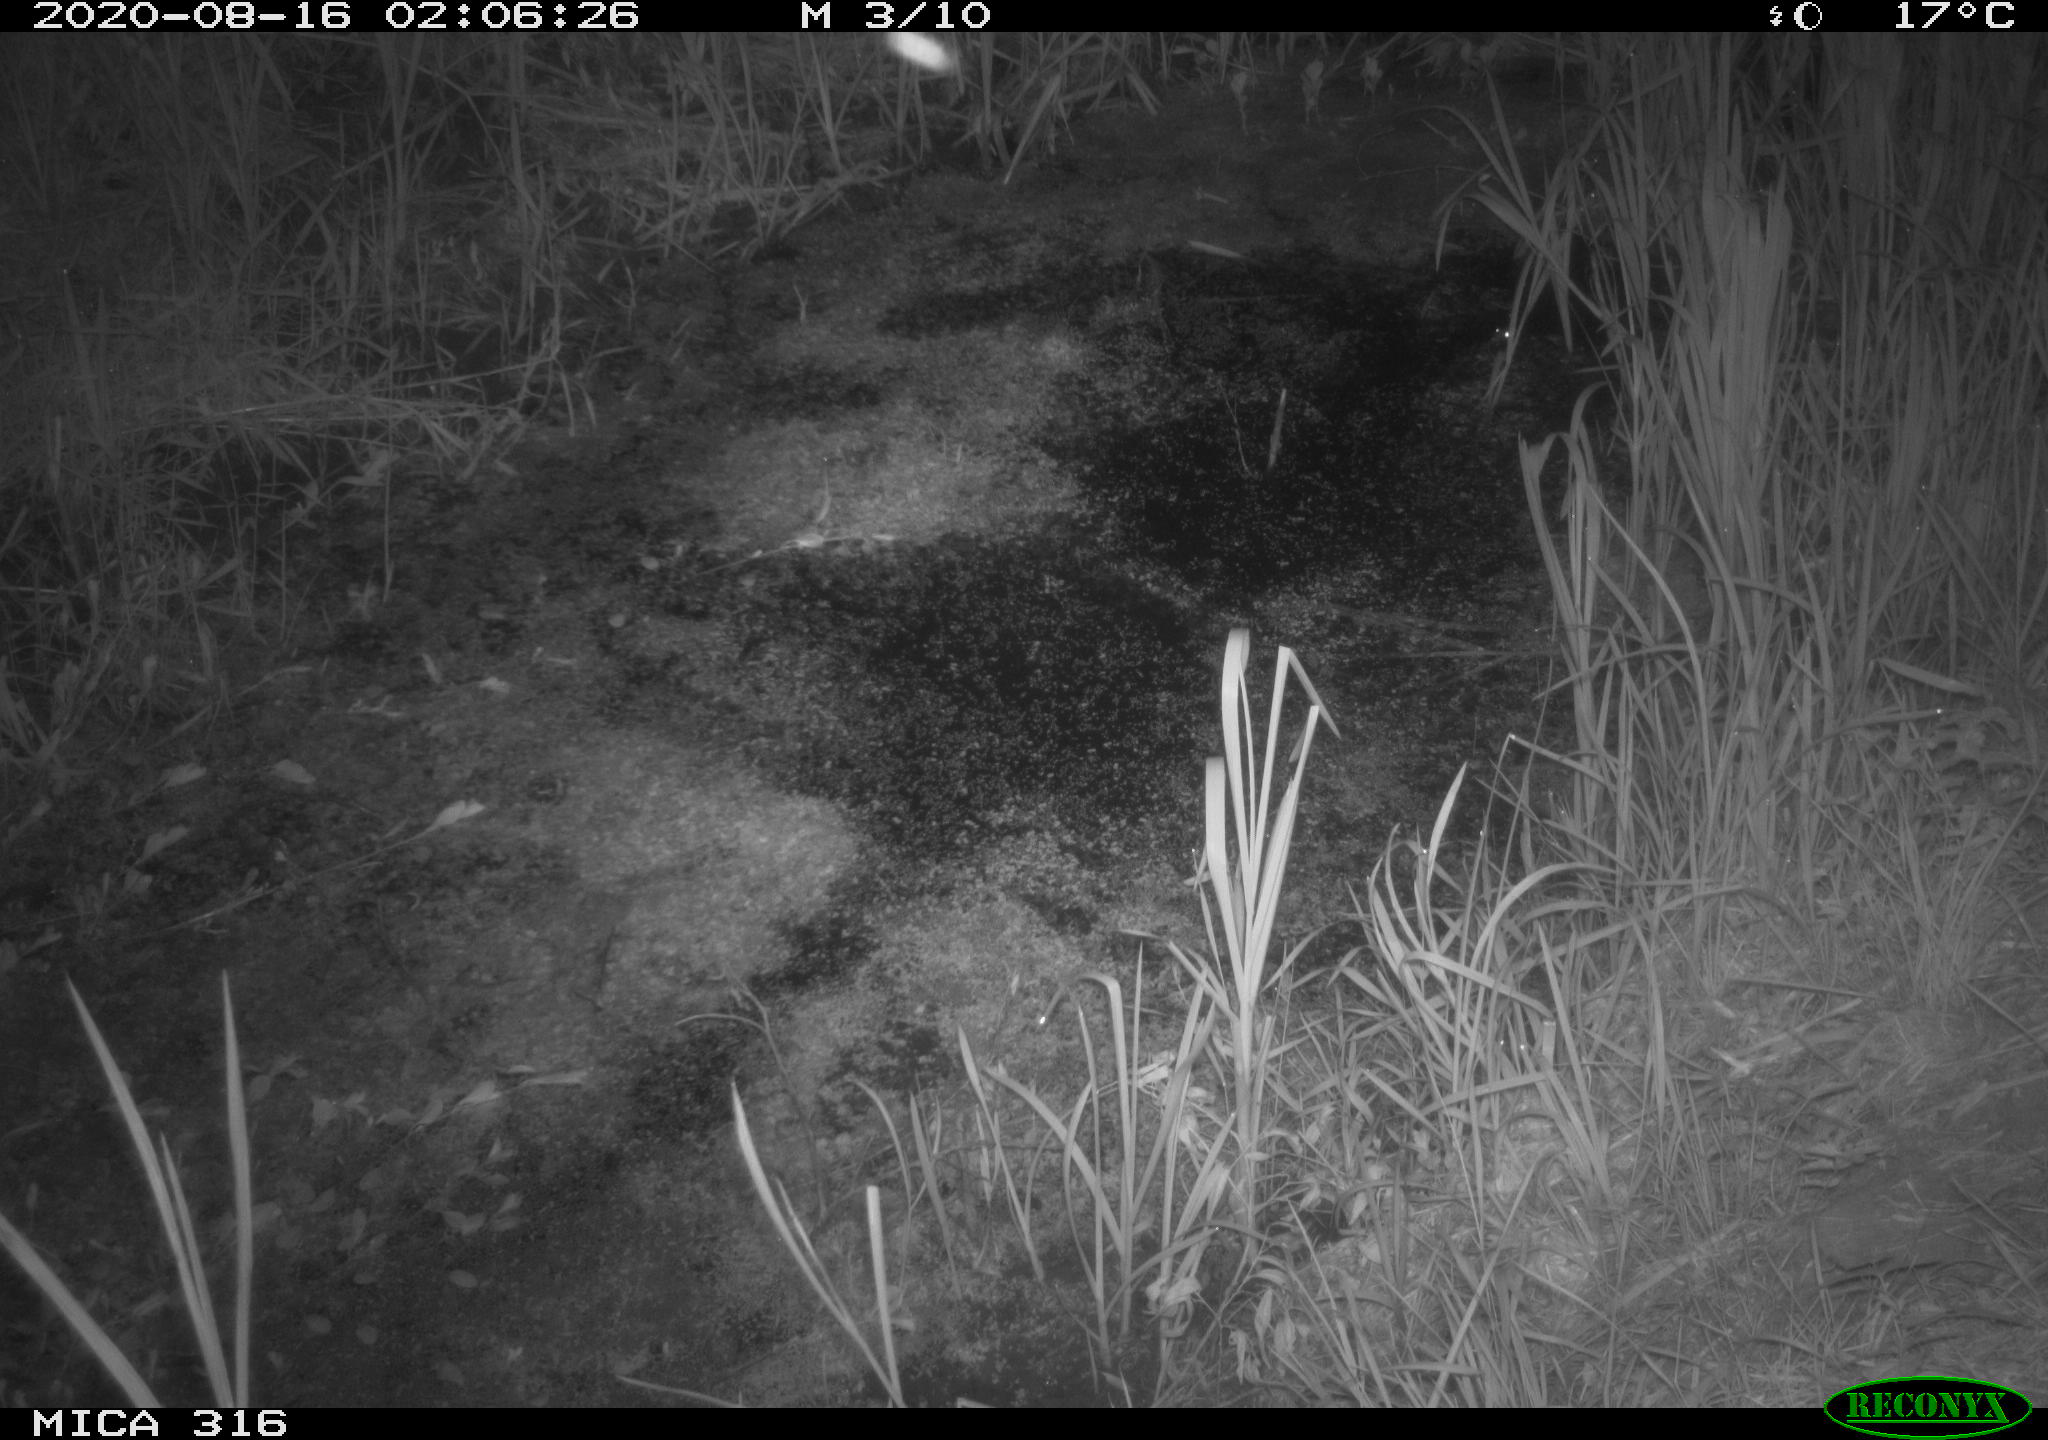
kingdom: Animalia
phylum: Chordata
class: Mammalia
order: Rodentia
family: Muridae
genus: Rattus
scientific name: Rattus norvegicus
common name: Brown rat
